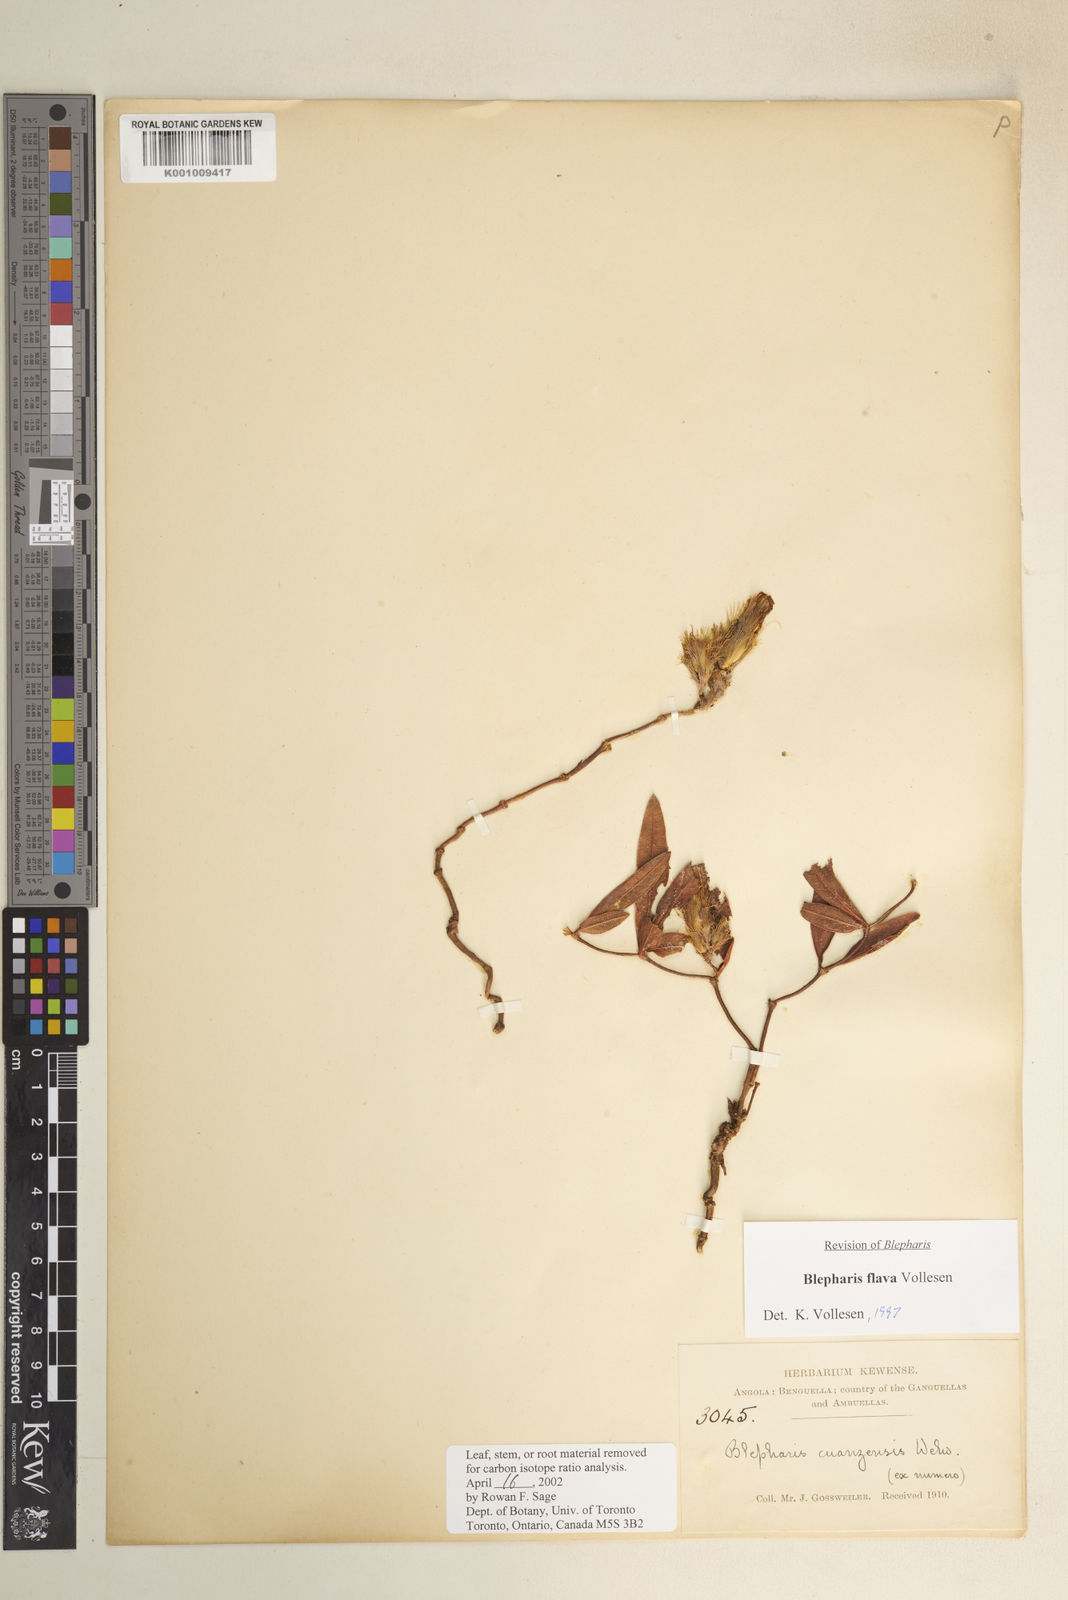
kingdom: Plantae
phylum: Tracheophyta
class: Magnoliopsida
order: Lamiales
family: Acanthaceae
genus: Blepharis
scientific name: Blepharis flava
